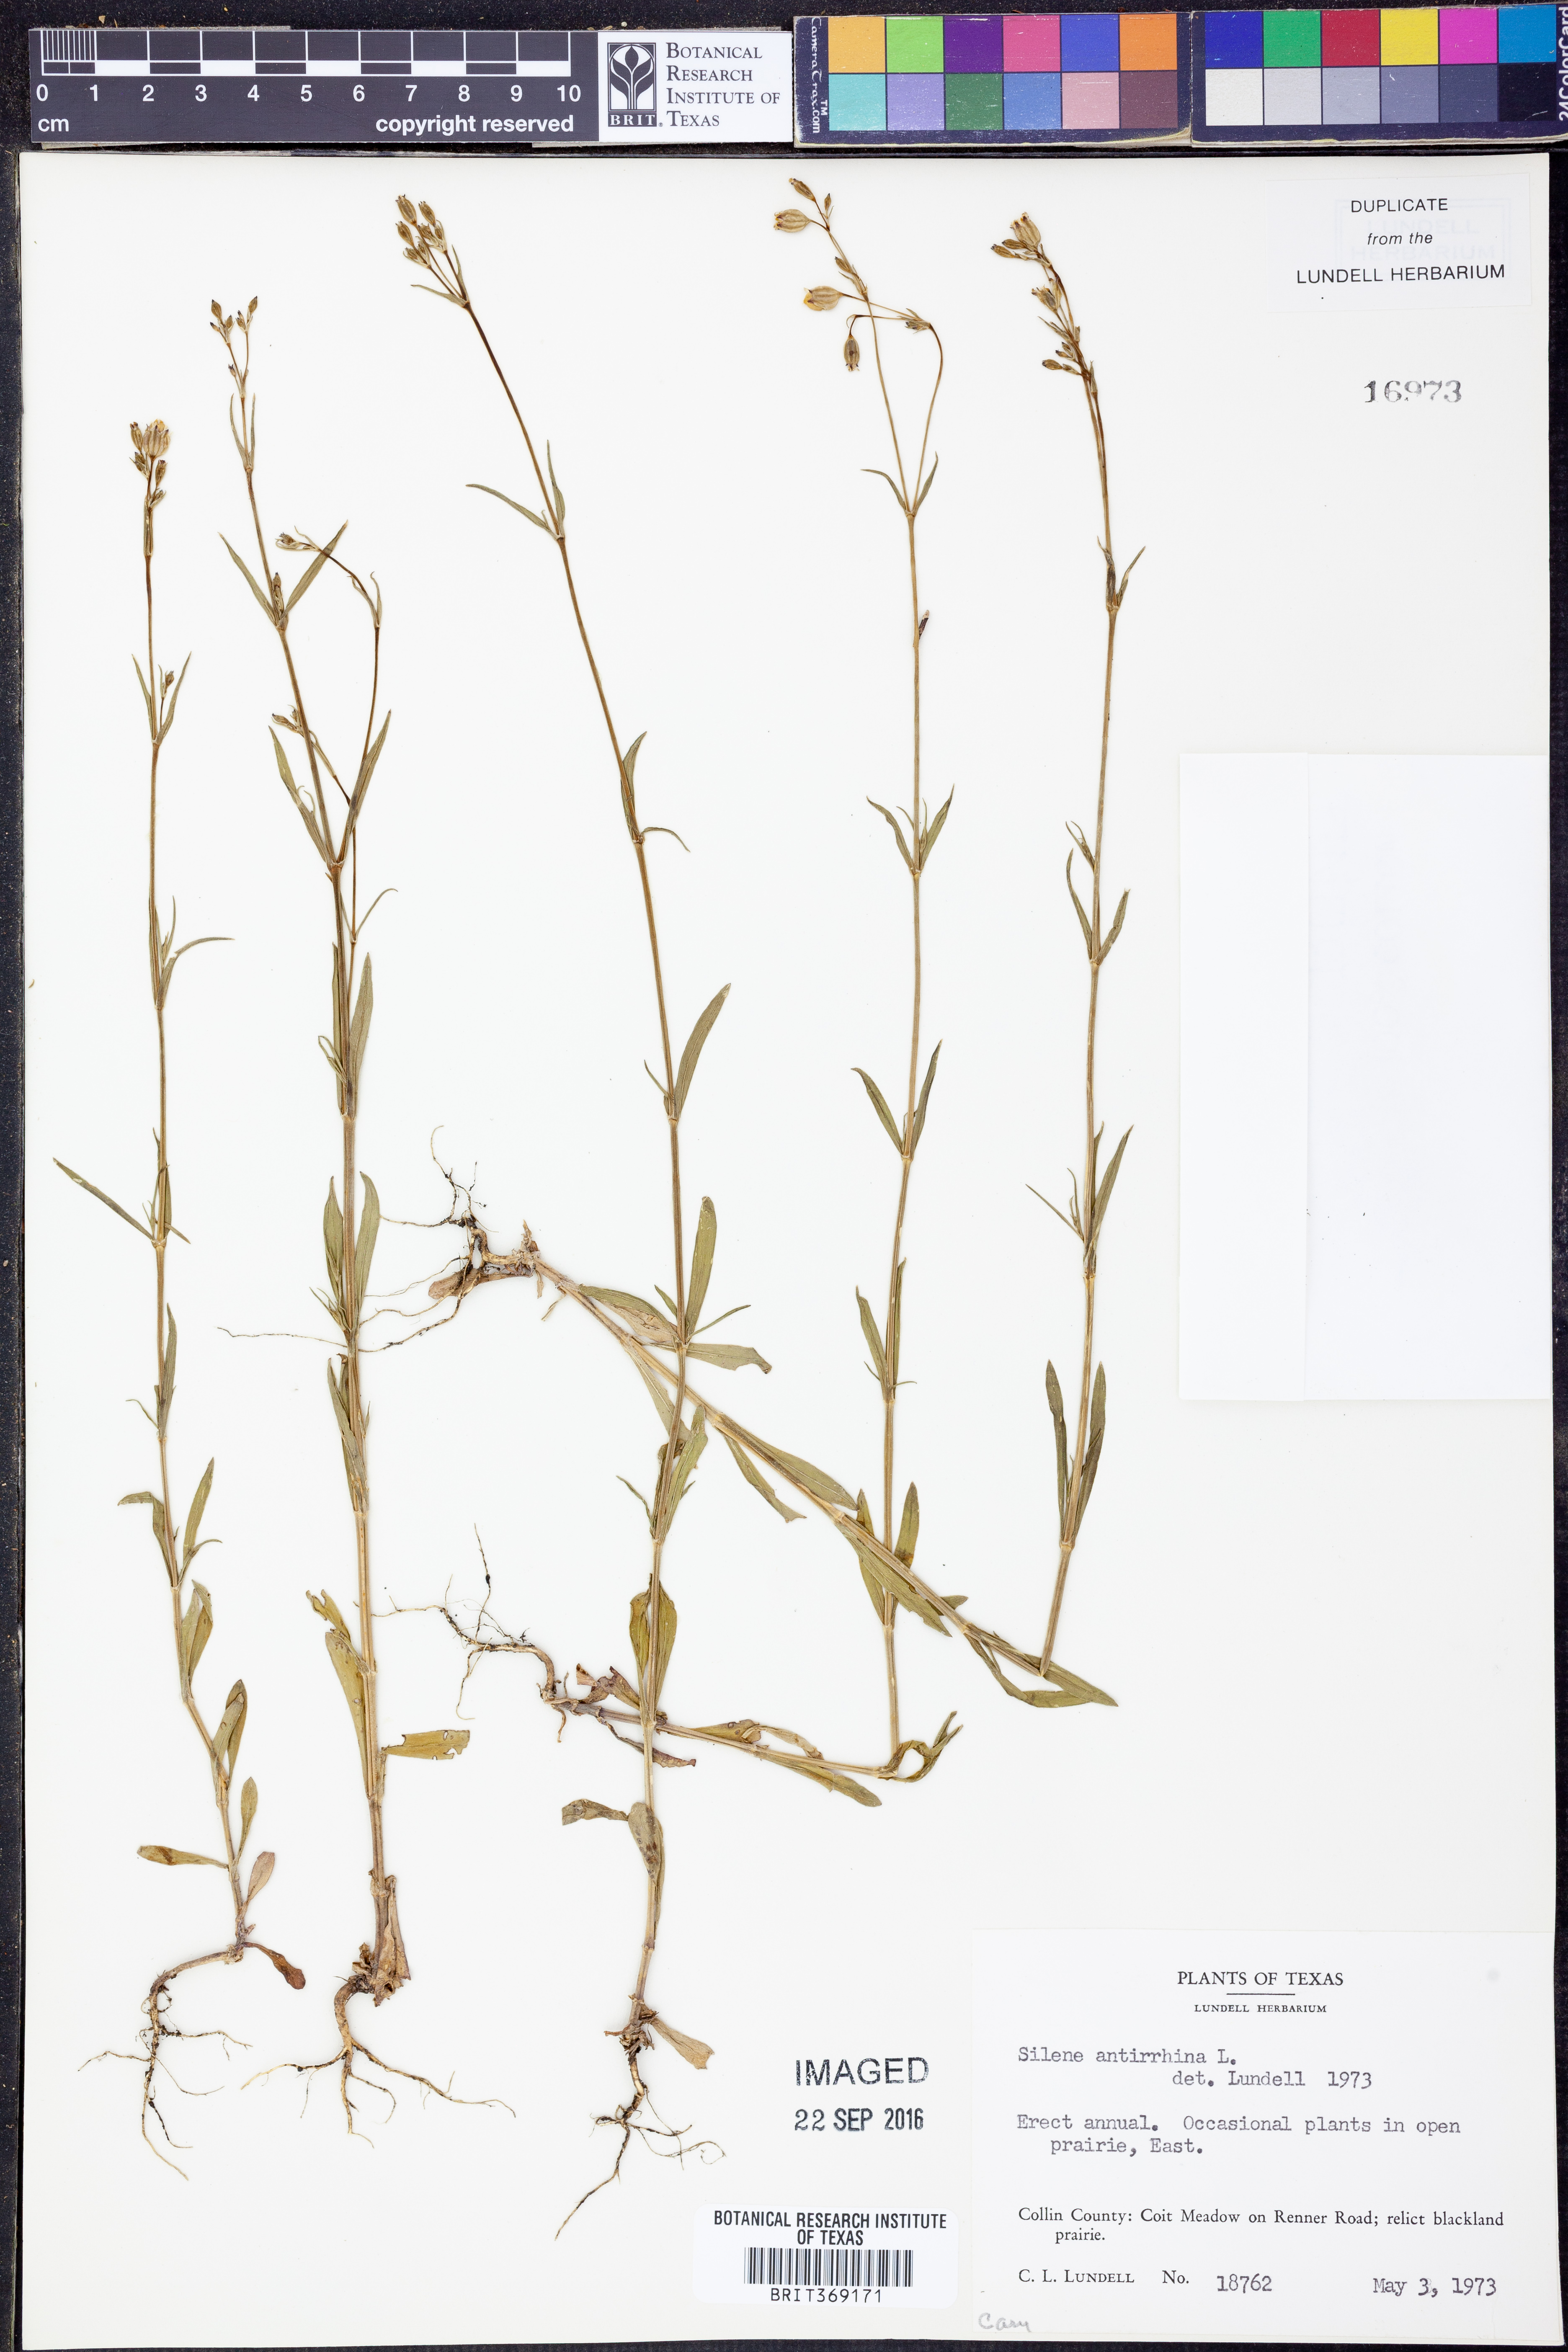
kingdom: Plantae
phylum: Tracheophyta
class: Magnoliopsida
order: Caryophyllales
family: Caryophyllaceae
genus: Silene
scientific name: Silene antirrhina
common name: Sleepy catchfly
